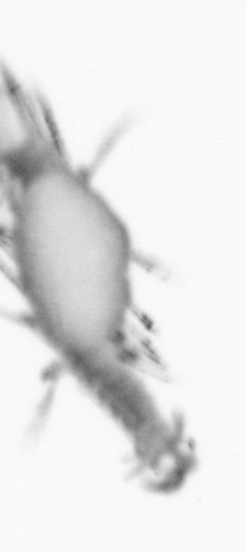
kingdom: Animalia
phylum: Annelida
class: Polychaeta
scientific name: Polychaeta
